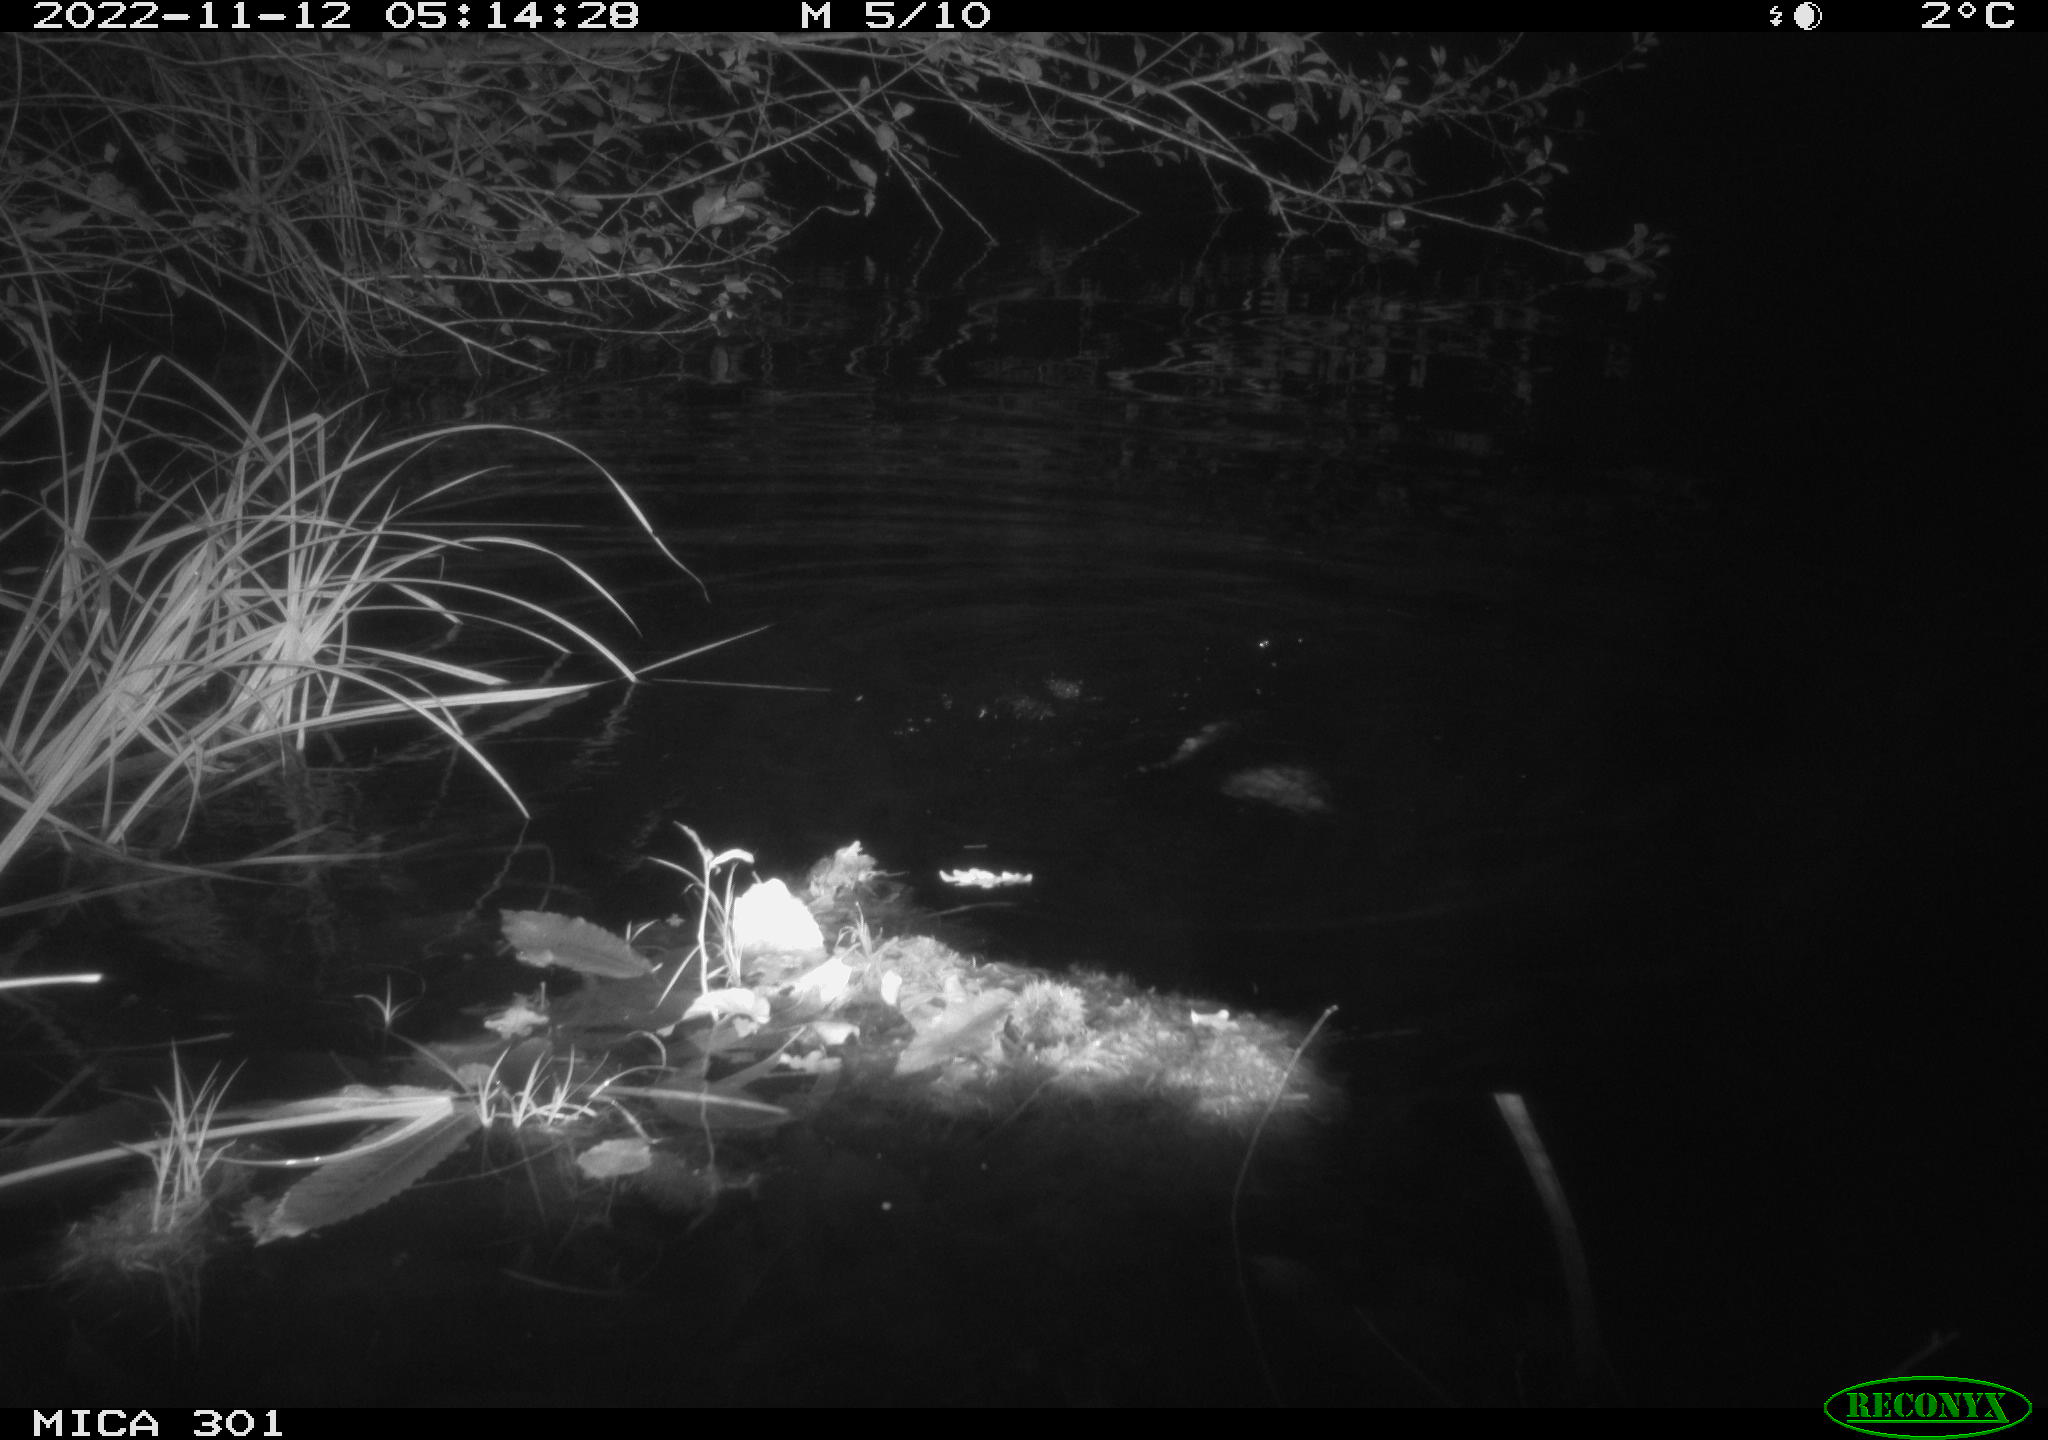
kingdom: Animalia
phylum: Chordata
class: Mammalia
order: Rodentia
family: Castoridae
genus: Castor
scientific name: Castor fiber
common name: Eurasian beaver
